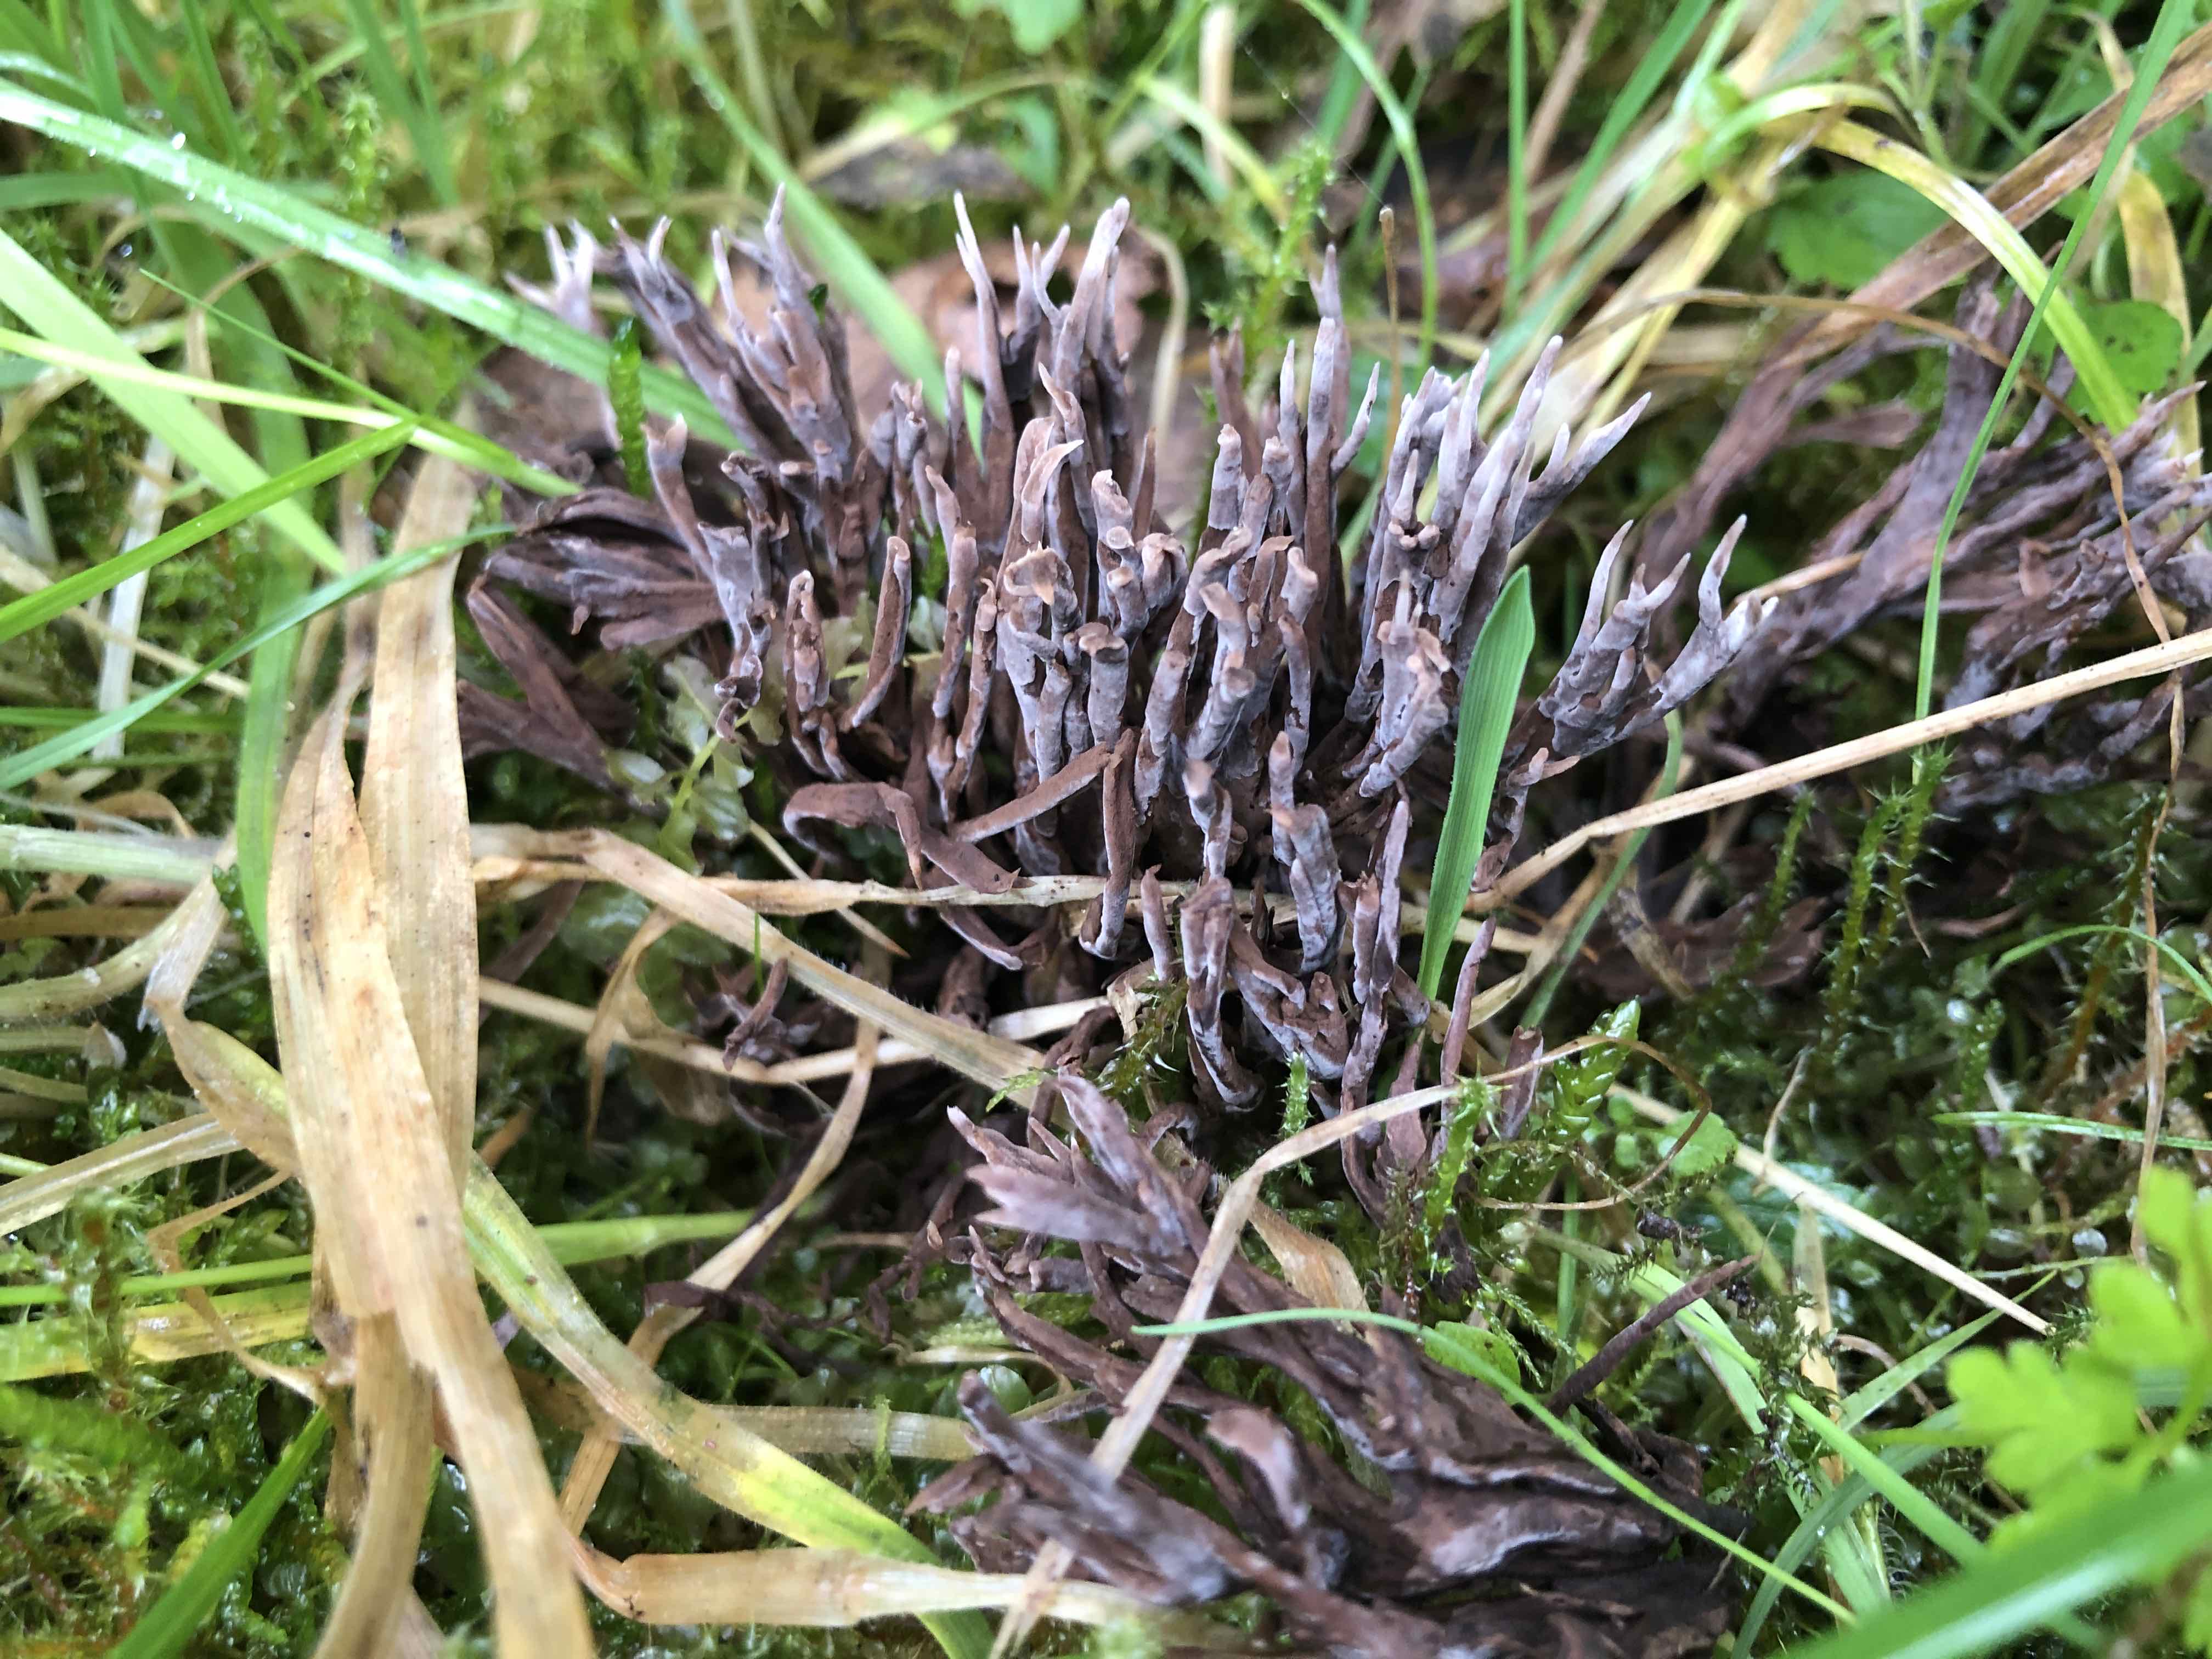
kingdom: Fungi
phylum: Basidiomycota
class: Agaricomycetes
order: Thelephorales
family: Thelephoraceae
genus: Thelephora
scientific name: Thelephora palmata
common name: grenet frynsesvamp
